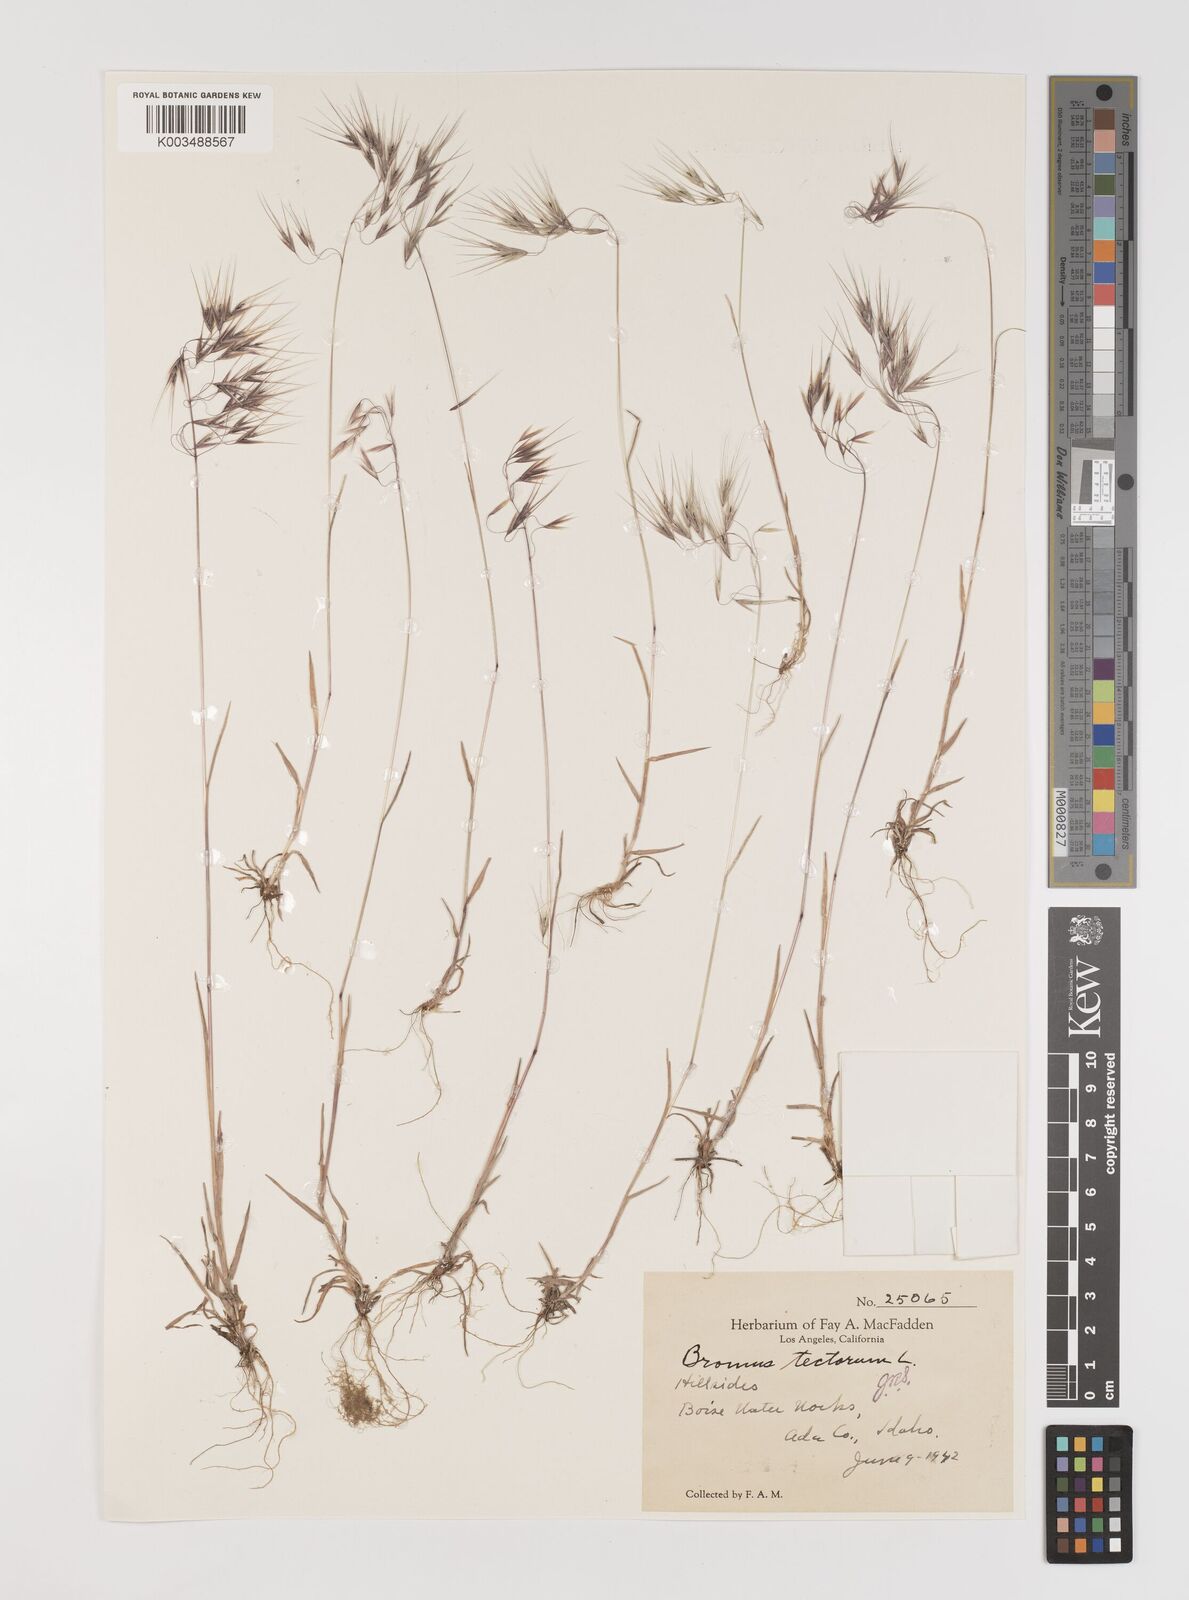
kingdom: Plantae
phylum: Tracheophyta
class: Liliopsida
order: Poales
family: Poaceae
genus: Bromus
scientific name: Bromus tectorum
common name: Cheatgrass
